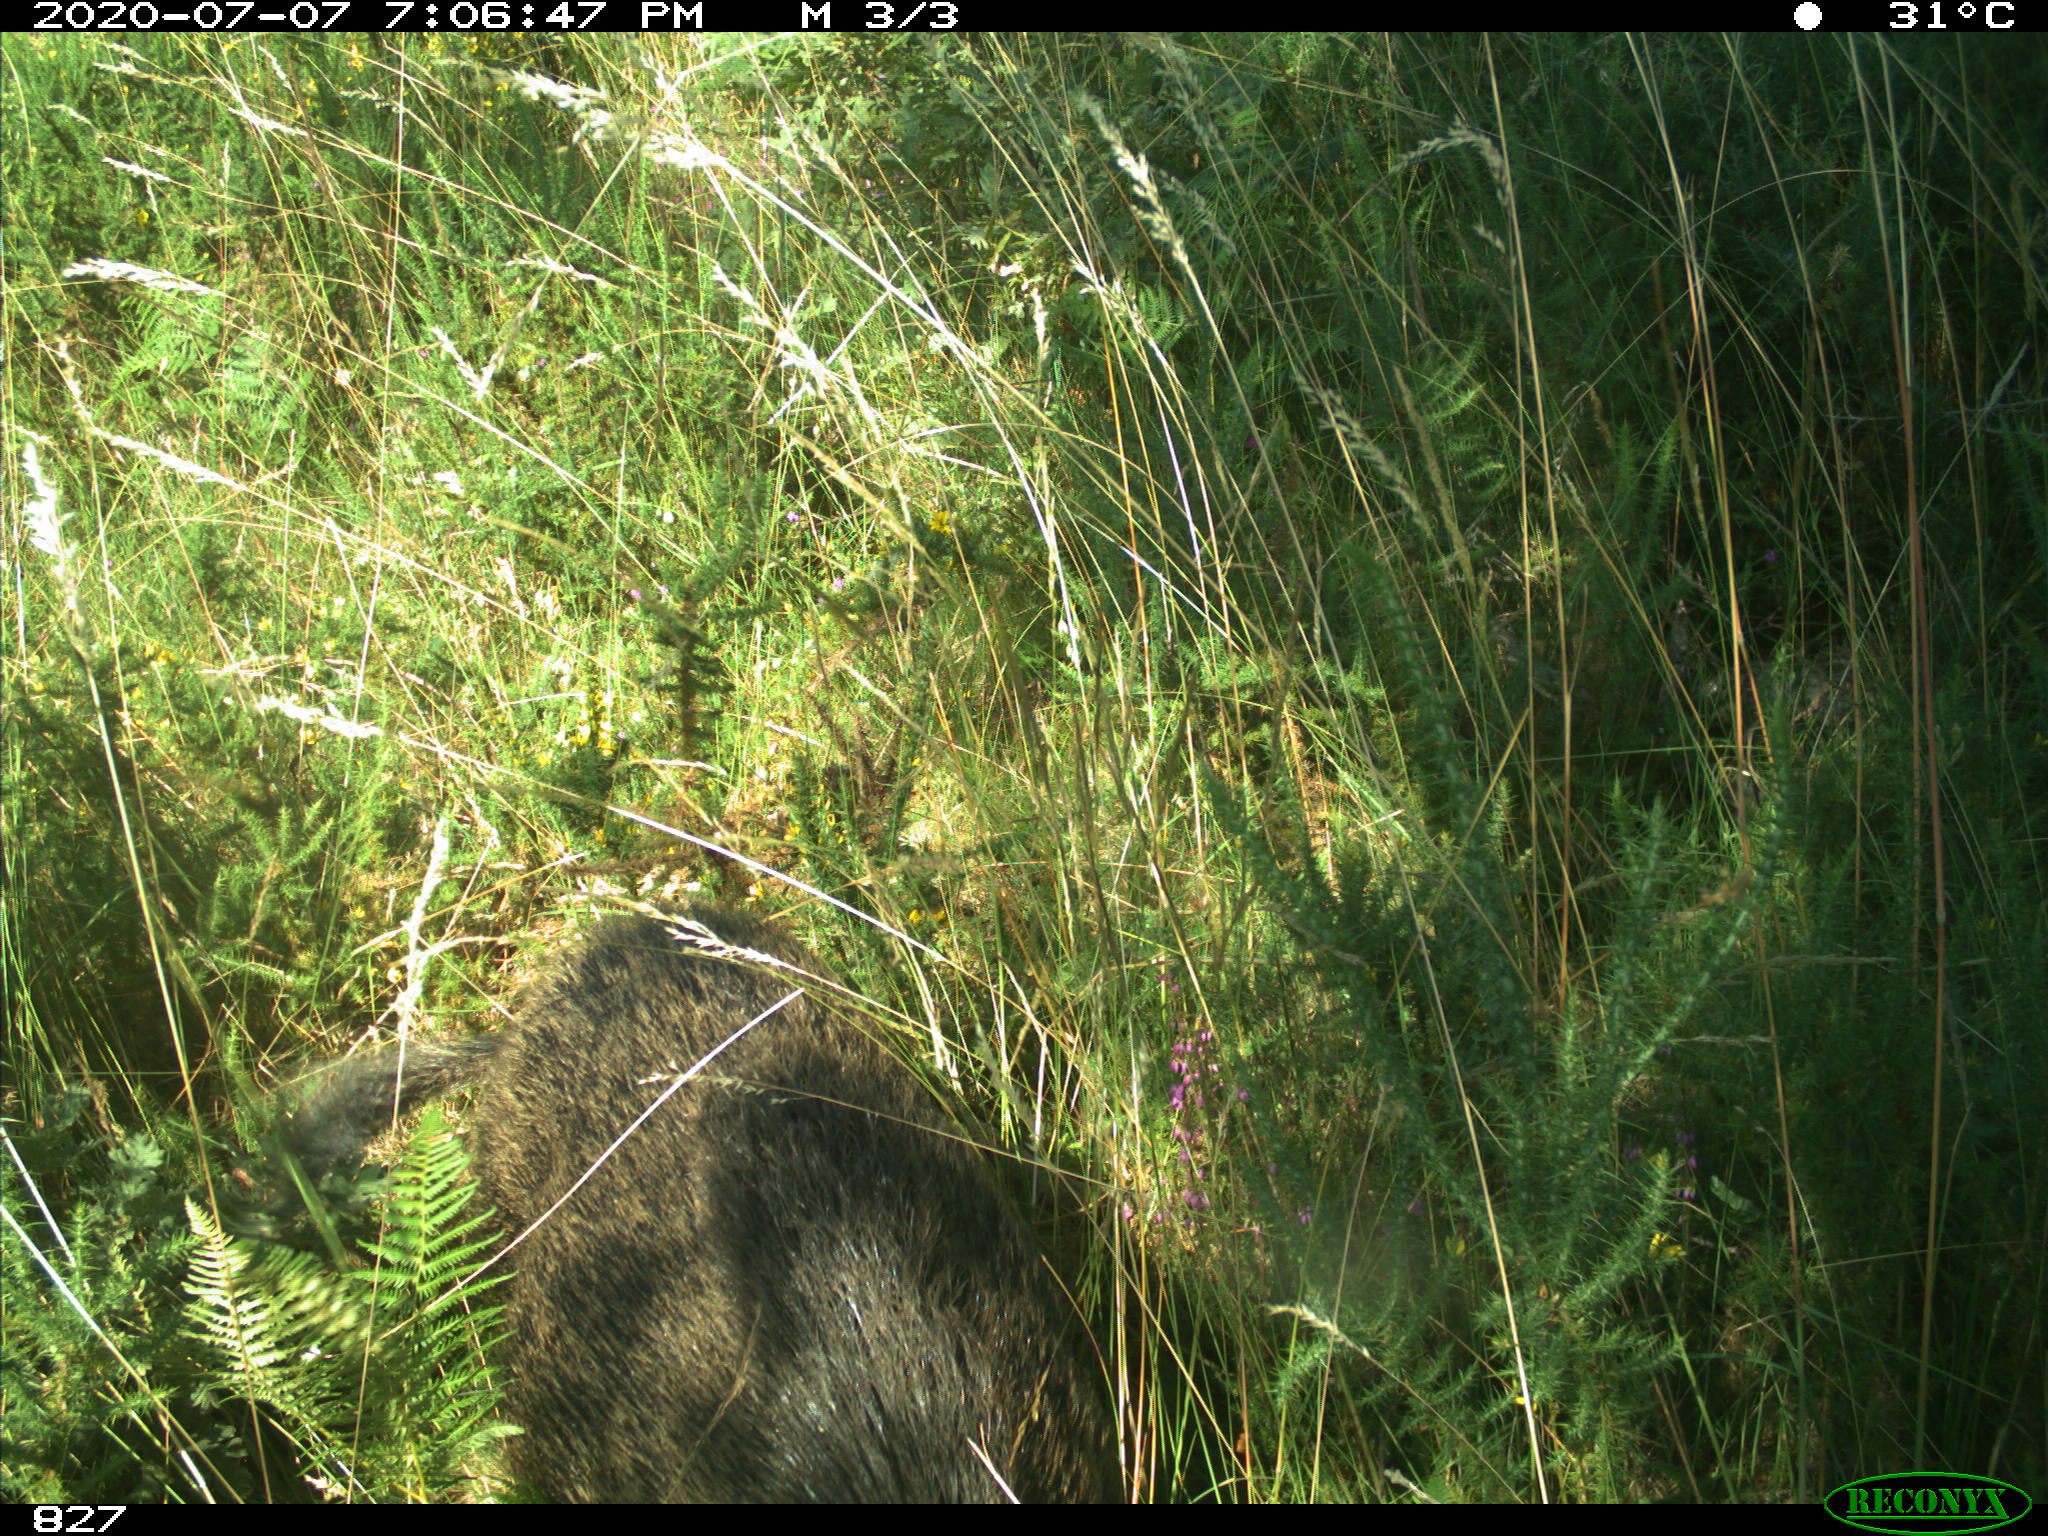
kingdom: Animalia
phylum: Chordata
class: Mammalia
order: Artiodactyla
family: Suidae
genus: Sus
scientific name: Sus scrofa
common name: Wild boar
